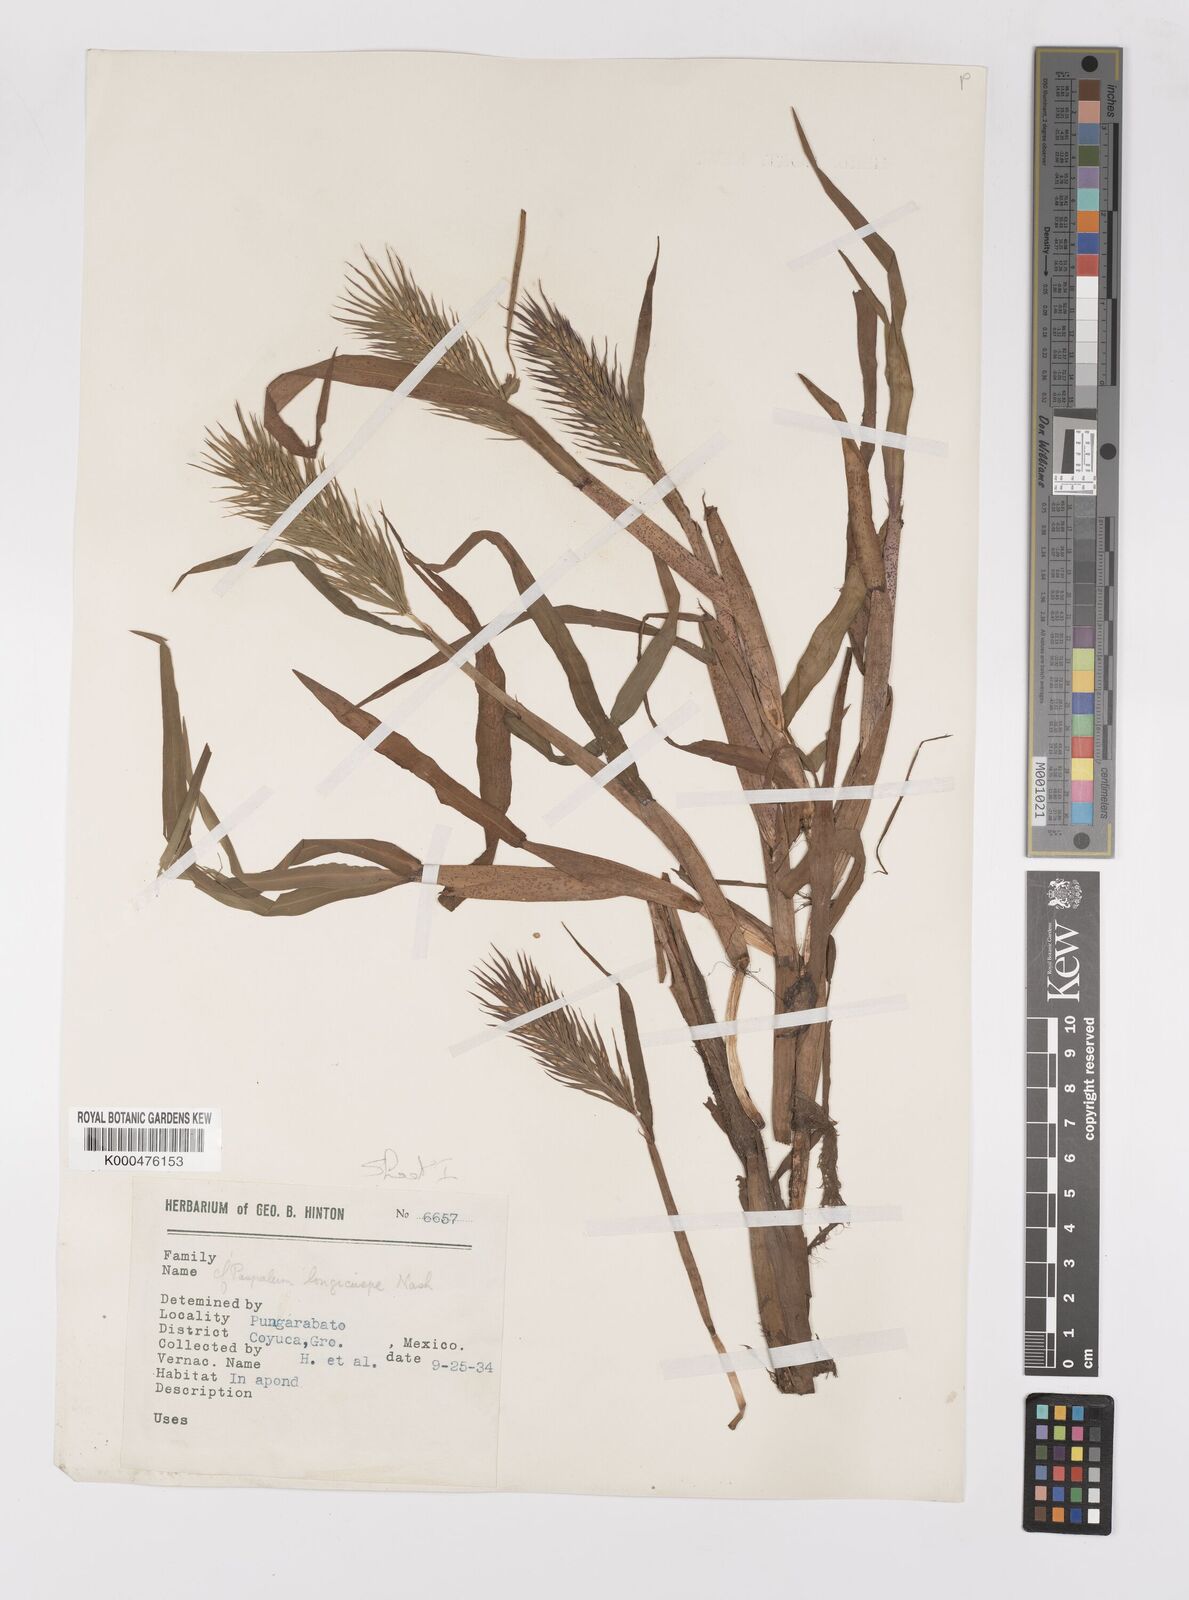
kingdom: Plantae
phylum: Tracheophyta
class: Liliopsida
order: Poales
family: Poaceae
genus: Paspalum
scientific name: Paspalum
